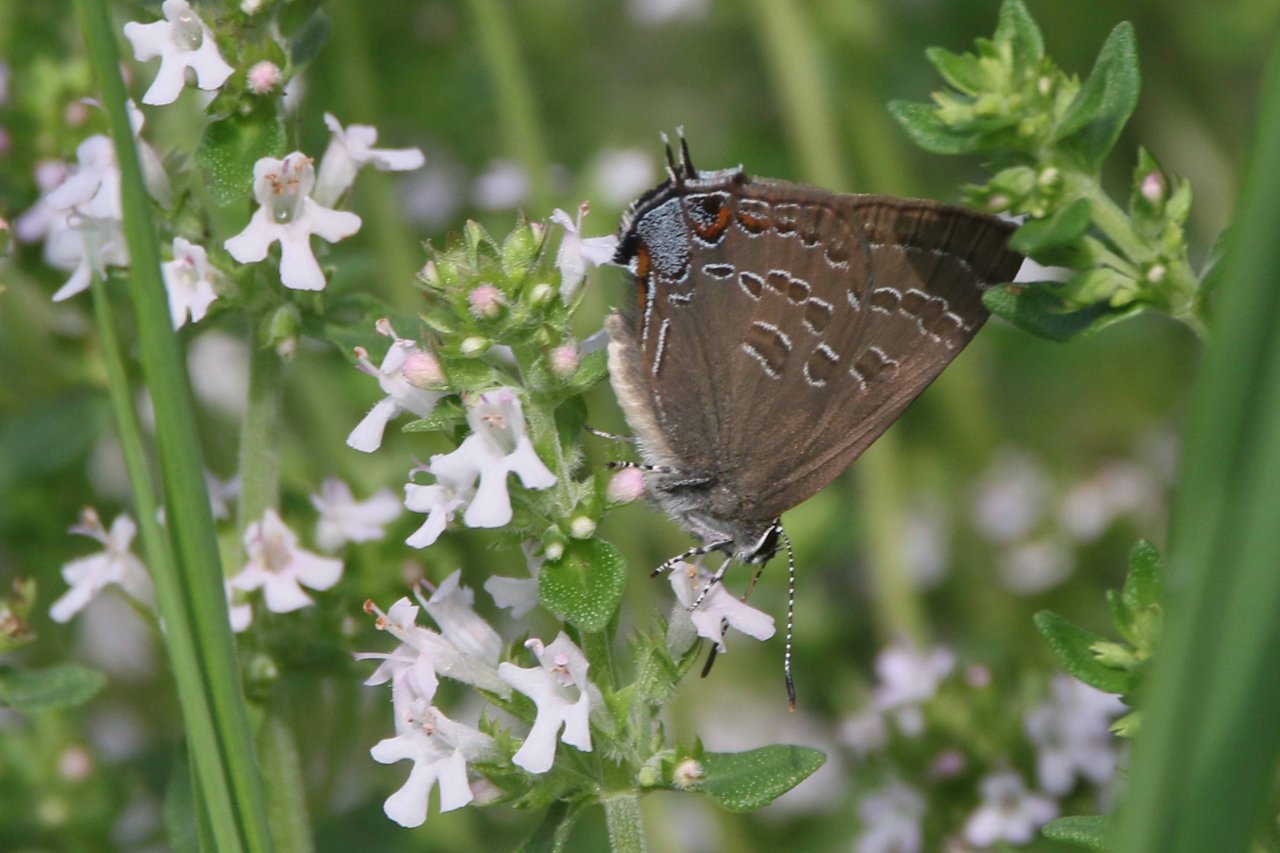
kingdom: Animalia
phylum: Arthropoda
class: Insecta
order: Lepidoptera
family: Lycaenidae
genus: Strymon
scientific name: Strymon caryaevorus
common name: Hickory Hairstreak
